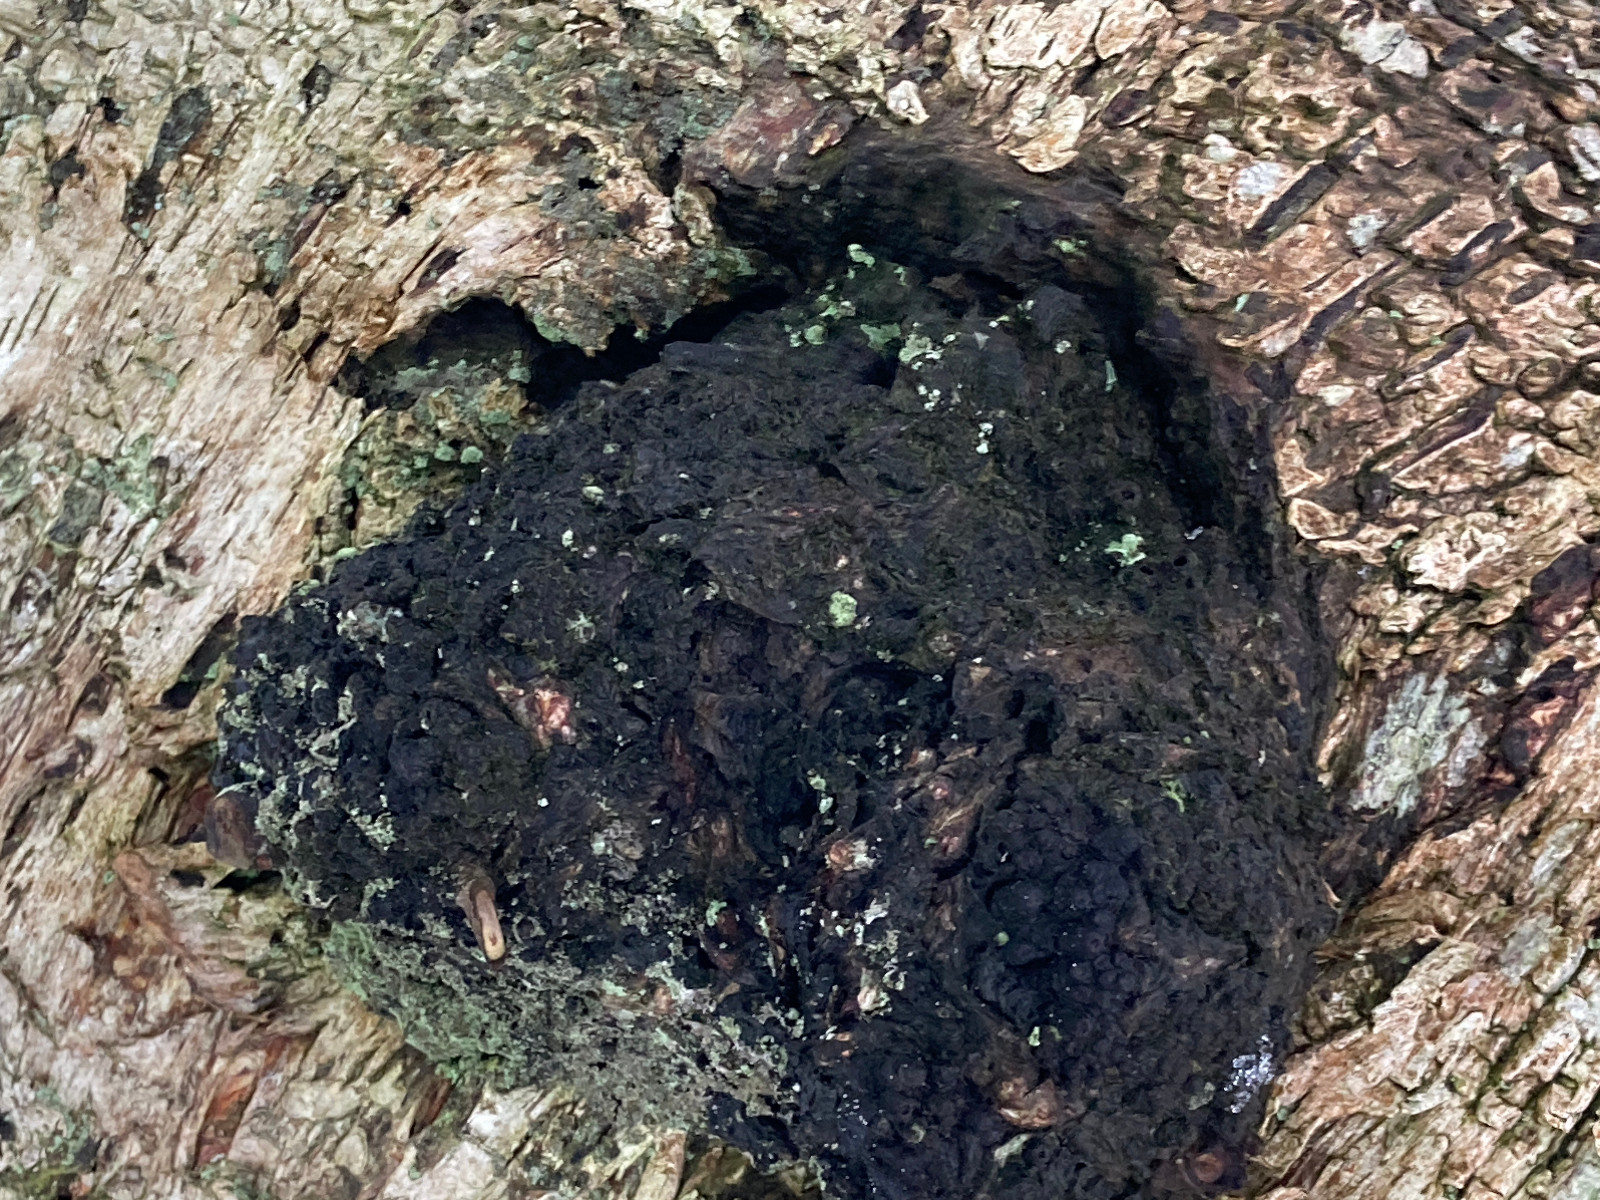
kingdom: Fungi
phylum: Basidiomycota
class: Agaricomycetes
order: Hymenochaetales
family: Hymenochaetaceae
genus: Inonotus
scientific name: Inonotus obliquus
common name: birke-spejlporesvamp
